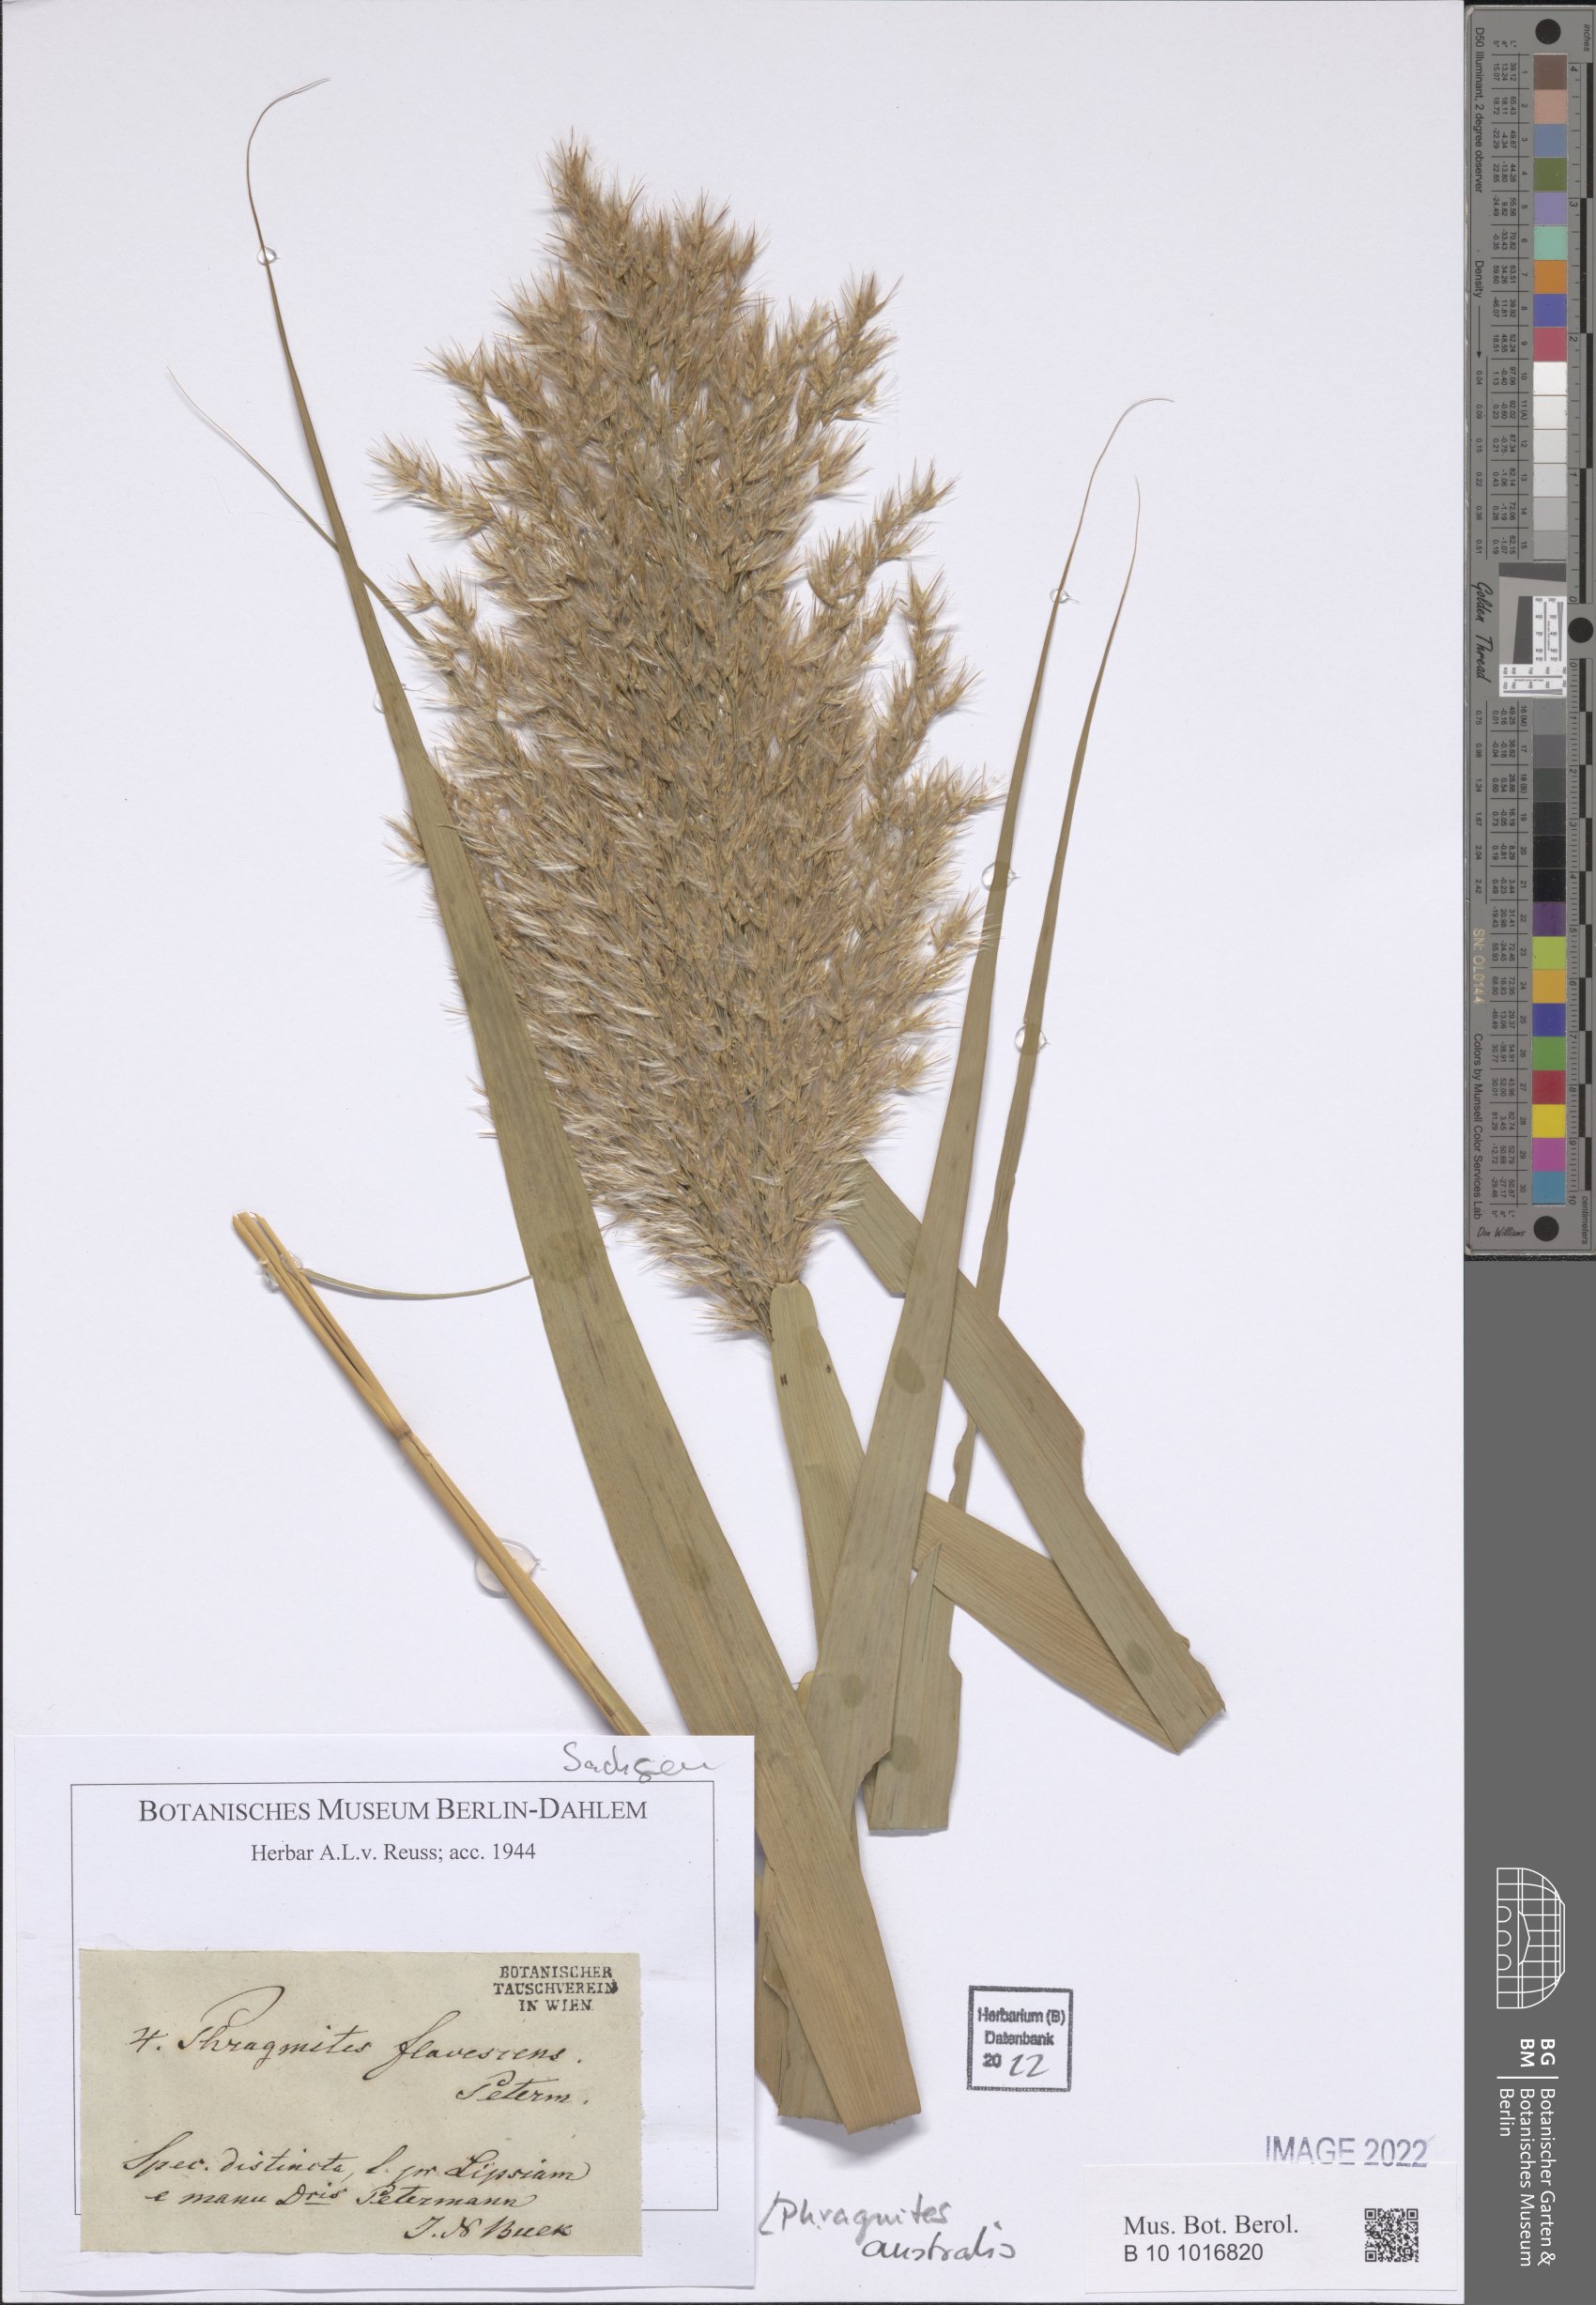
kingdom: Plantae
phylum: Tracheophyta
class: Liliopsida
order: Poales
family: Poaceae
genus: Phragmites
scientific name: Phragmites australis
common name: Common reed
